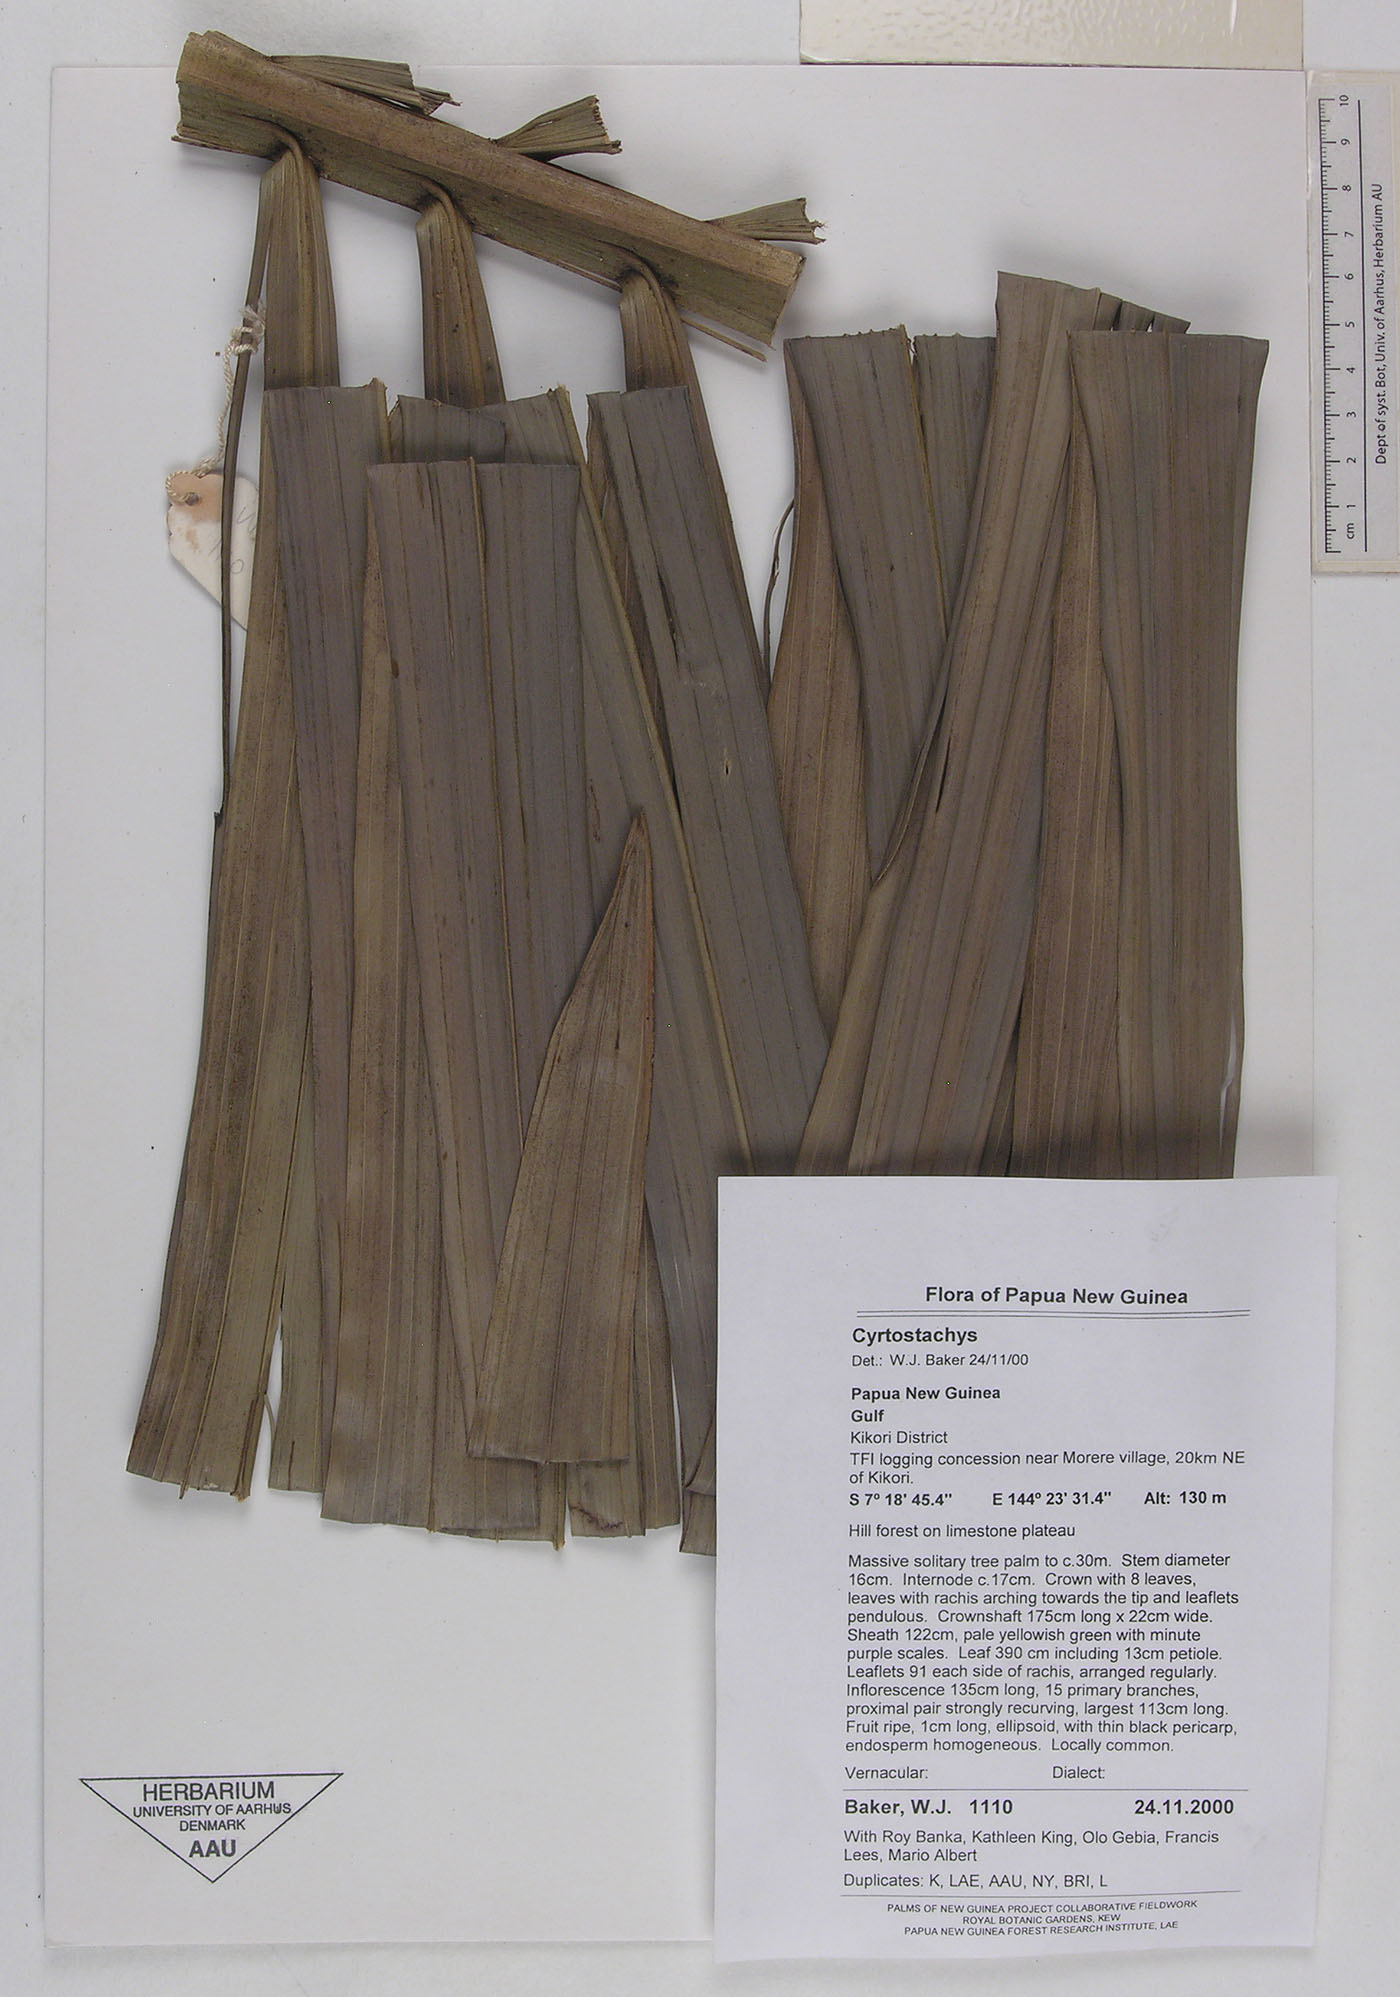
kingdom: Plantae
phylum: Tracheophyta
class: Liliopsida
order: Arecales
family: Arecaceae
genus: Cyrtostachys
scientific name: Cyrtostachys
